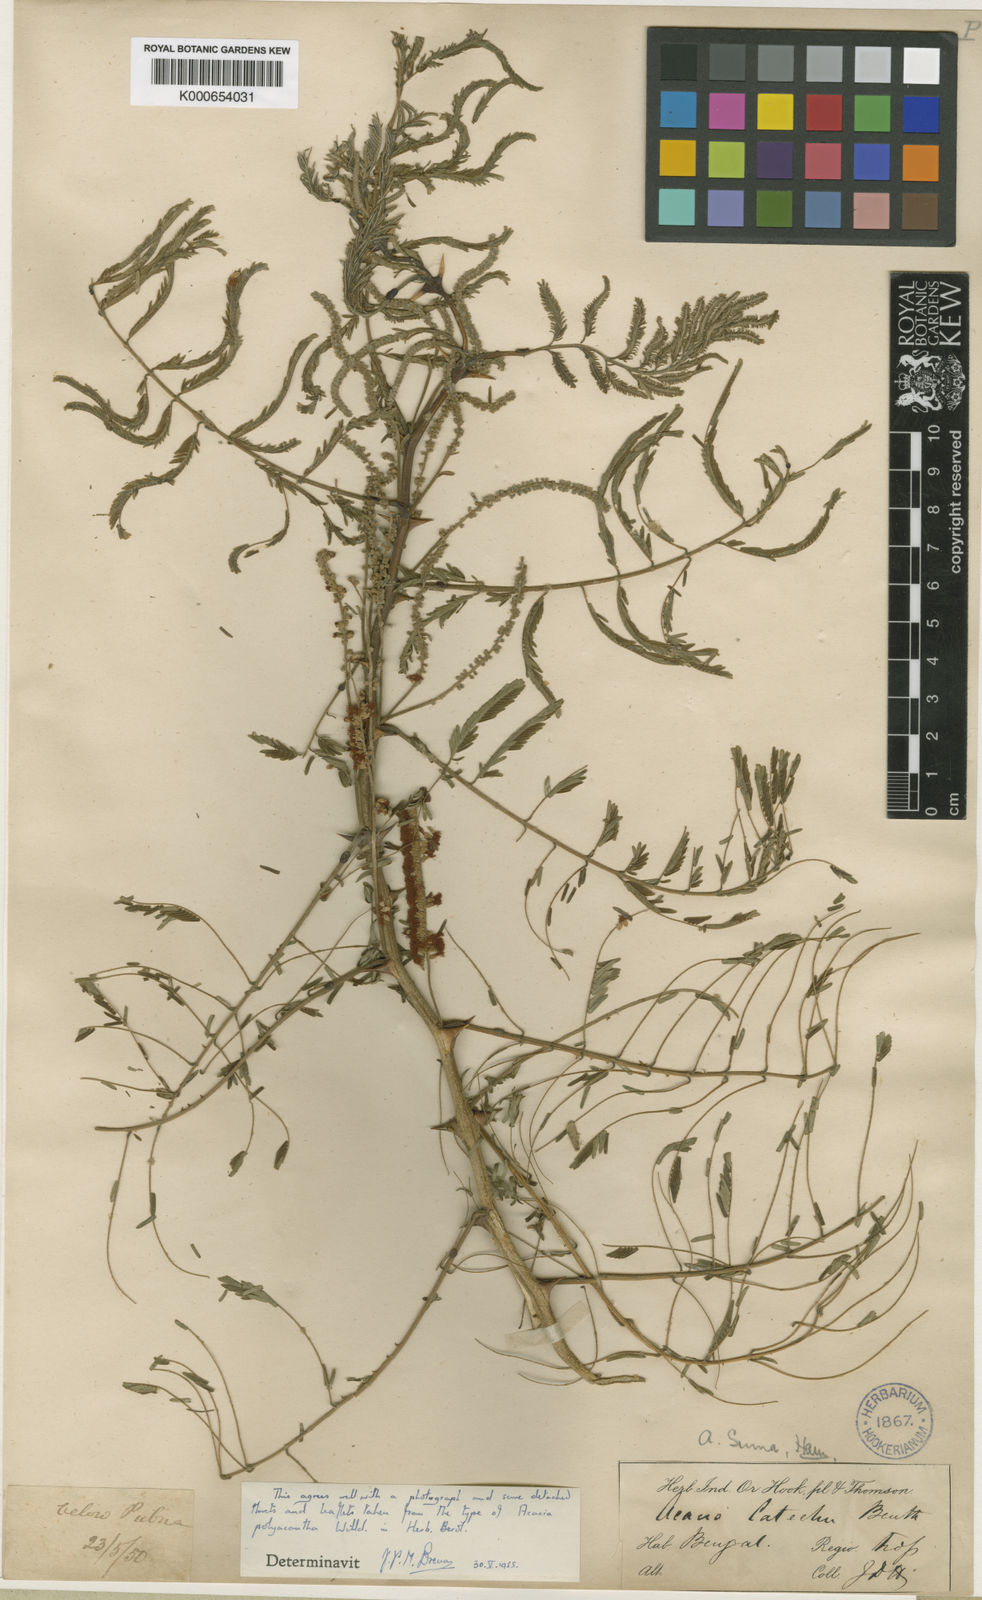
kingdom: Plantae
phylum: Tracheophyta
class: Magnoliopsida
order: Fabales
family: Fabaceae
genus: Senegalia
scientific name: Senegalia polyacantha
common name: Whitethorn
